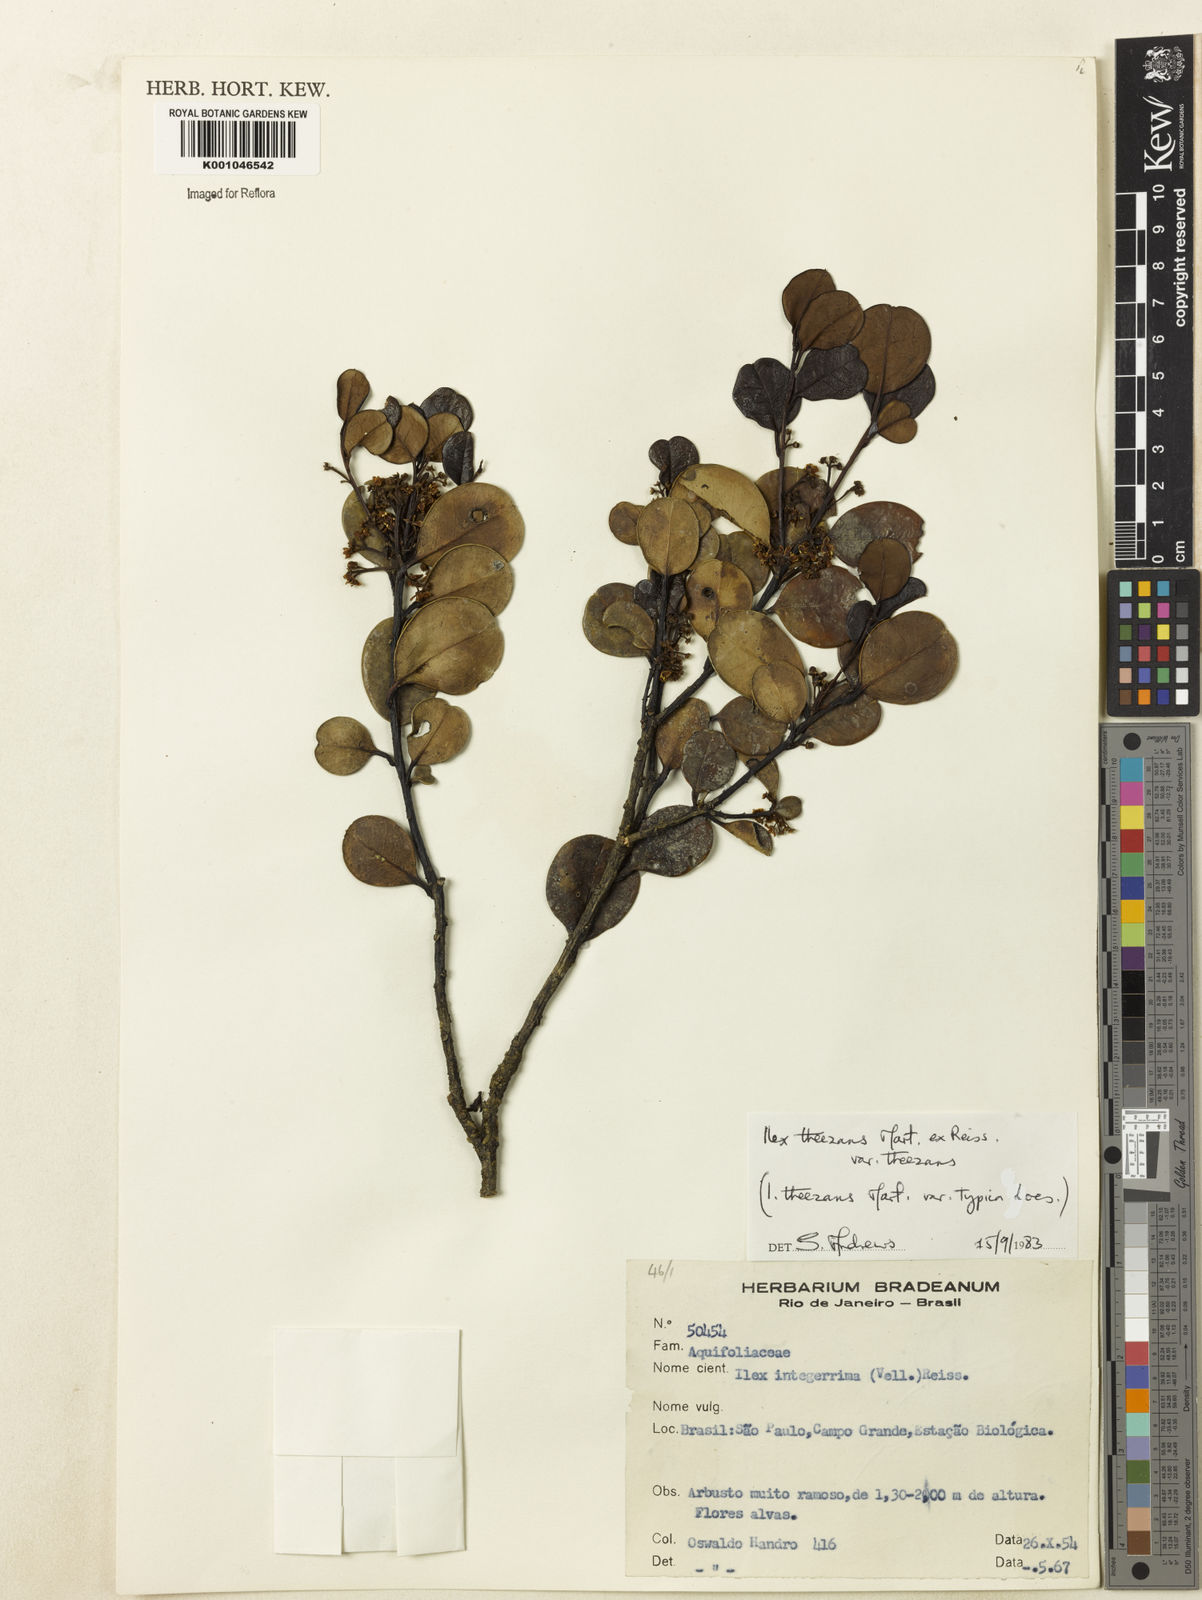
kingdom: Plantae
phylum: Tracheophyta
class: Magnoliopsida
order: Aquifoliales
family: Aquifoliaceae
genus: Ilex
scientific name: Ilex theezans
